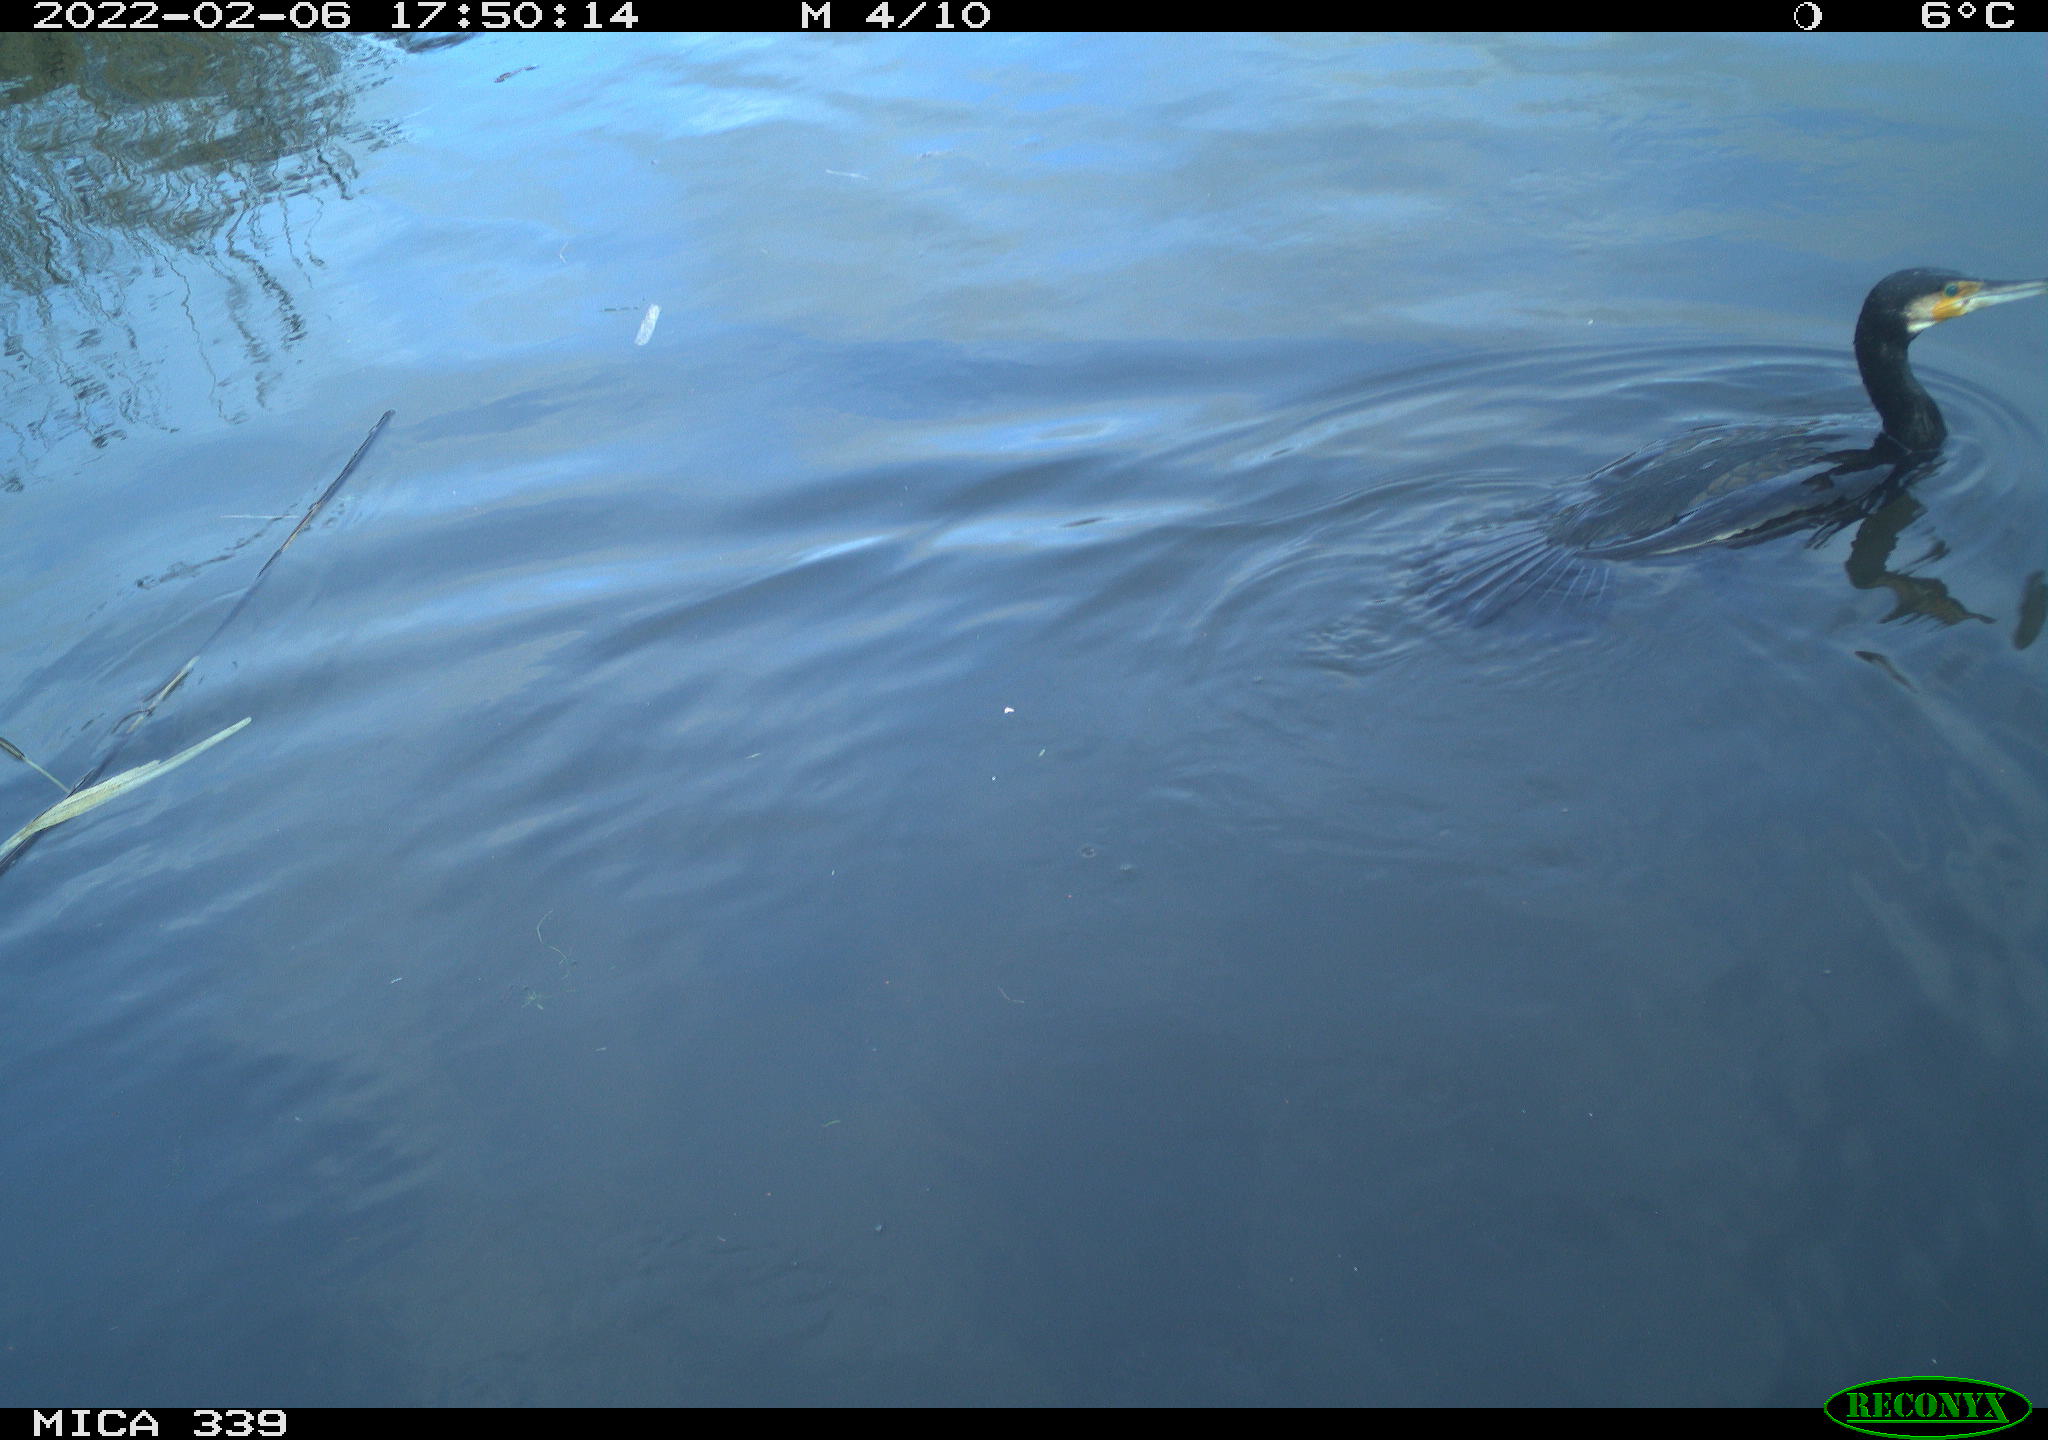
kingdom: Animalia
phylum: Chordata
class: Aves
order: Suliformes
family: Phalacrocoracidae
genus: Phalacrocorax
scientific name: Phalacrocorax carbo
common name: Great cormorant
